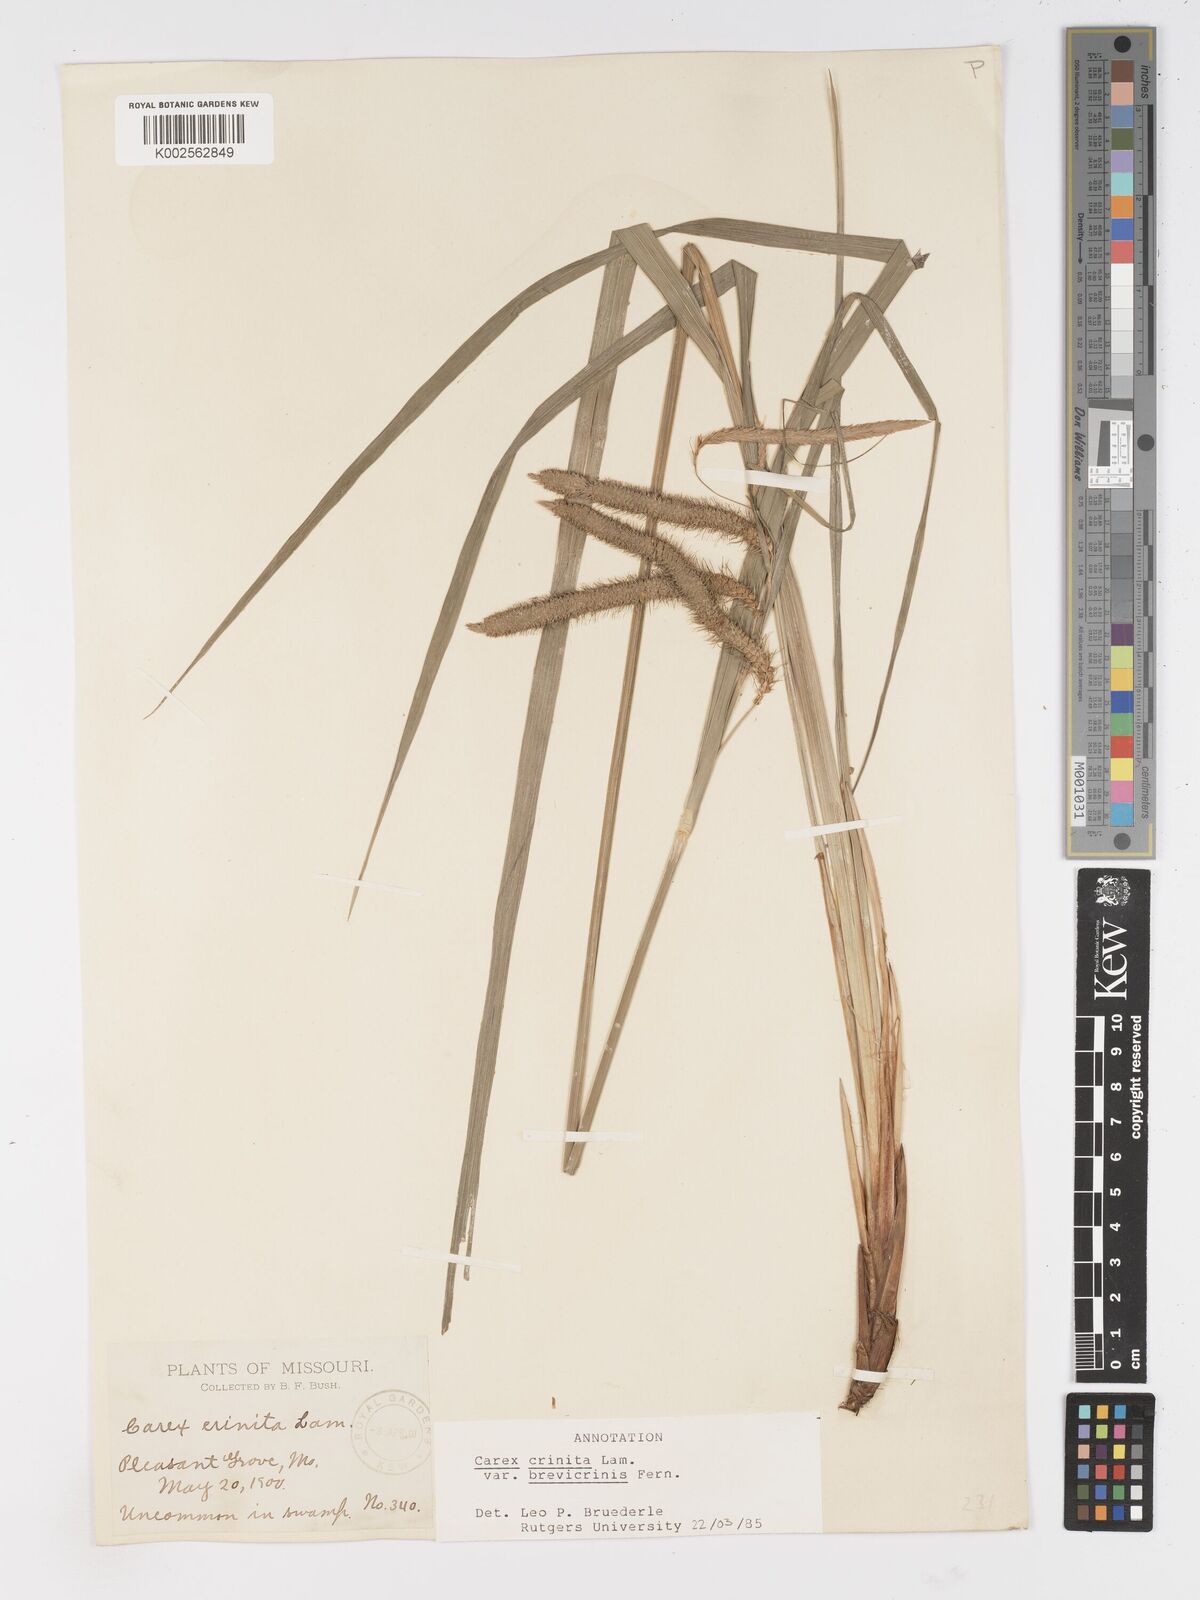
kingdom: Plantae
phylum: Tracheophyta
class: Liliopsida
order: Poales
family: Cyperaceae
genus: Carex
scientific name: Carex crinita
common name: Fringed sedge
